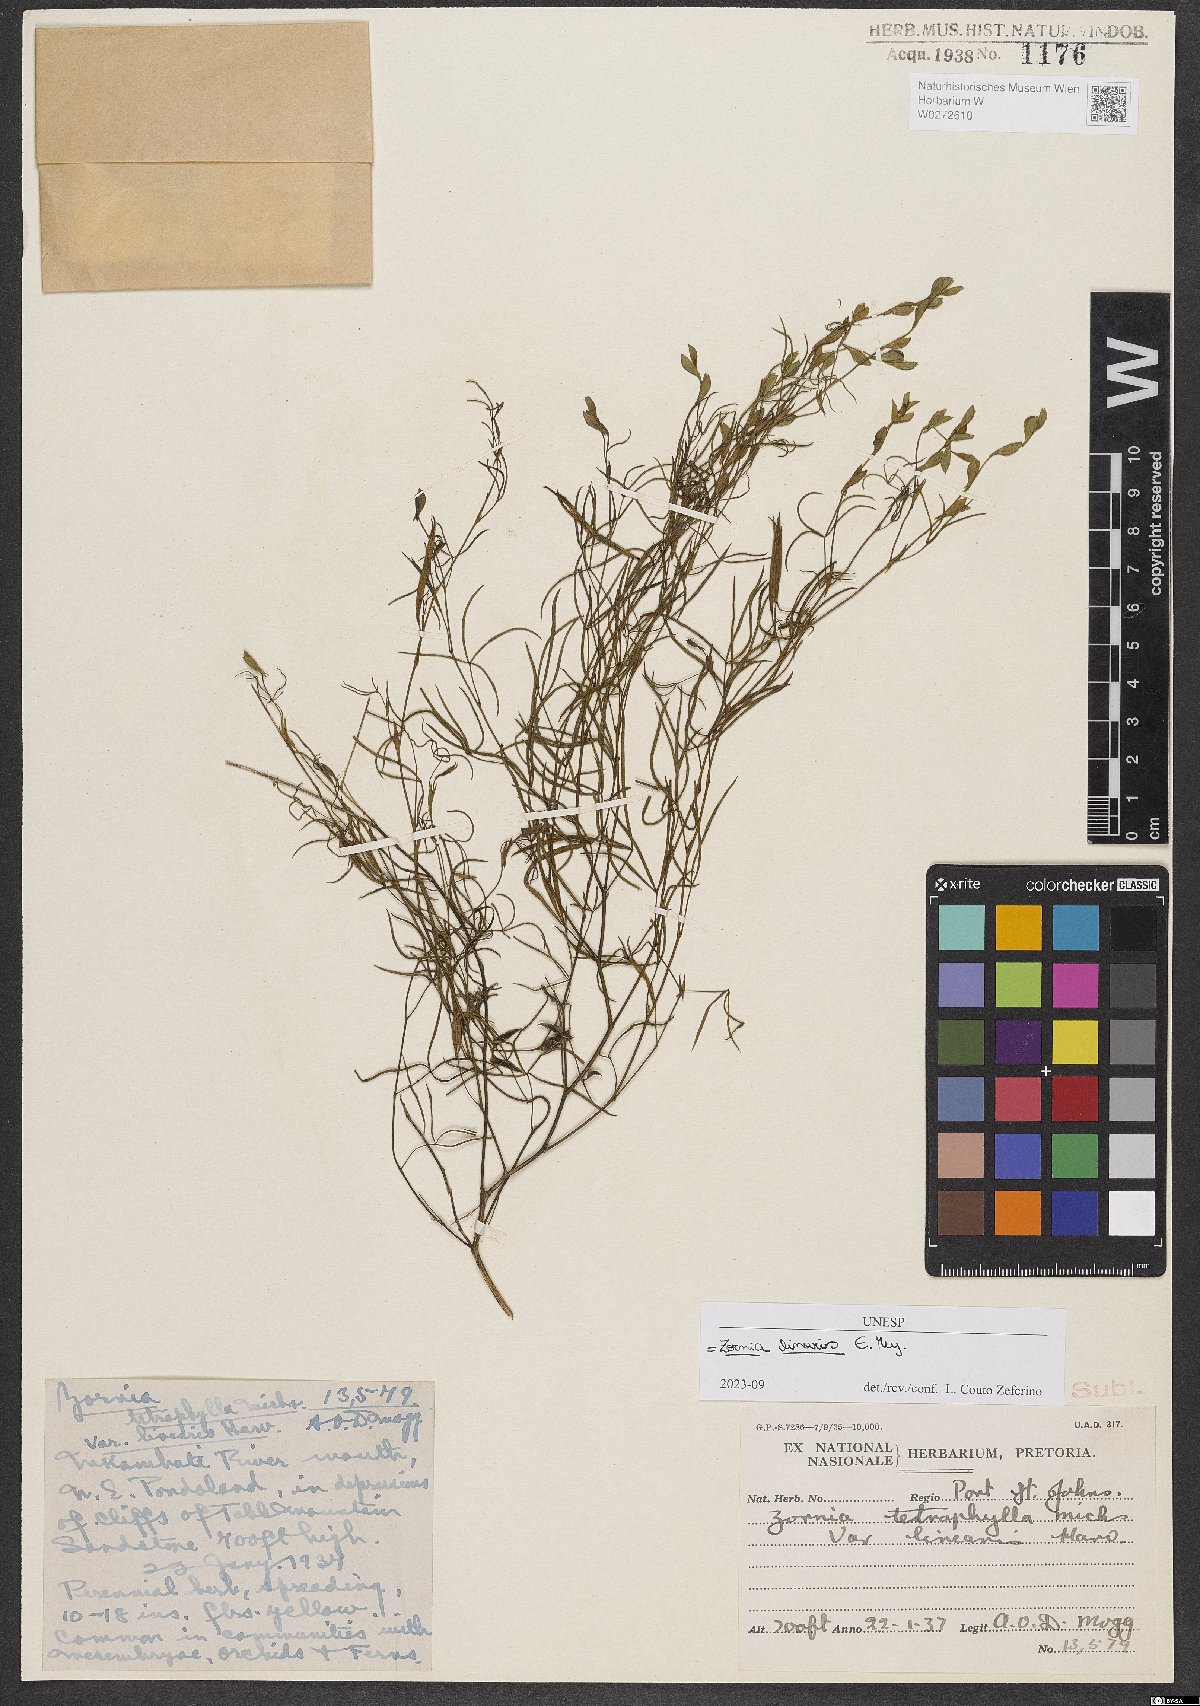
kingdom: Plantae
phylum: Tracheophyta
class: Magnoliopsida
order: Fabales
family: Fabaceae
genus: Zornia
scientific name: Zornia linearis
